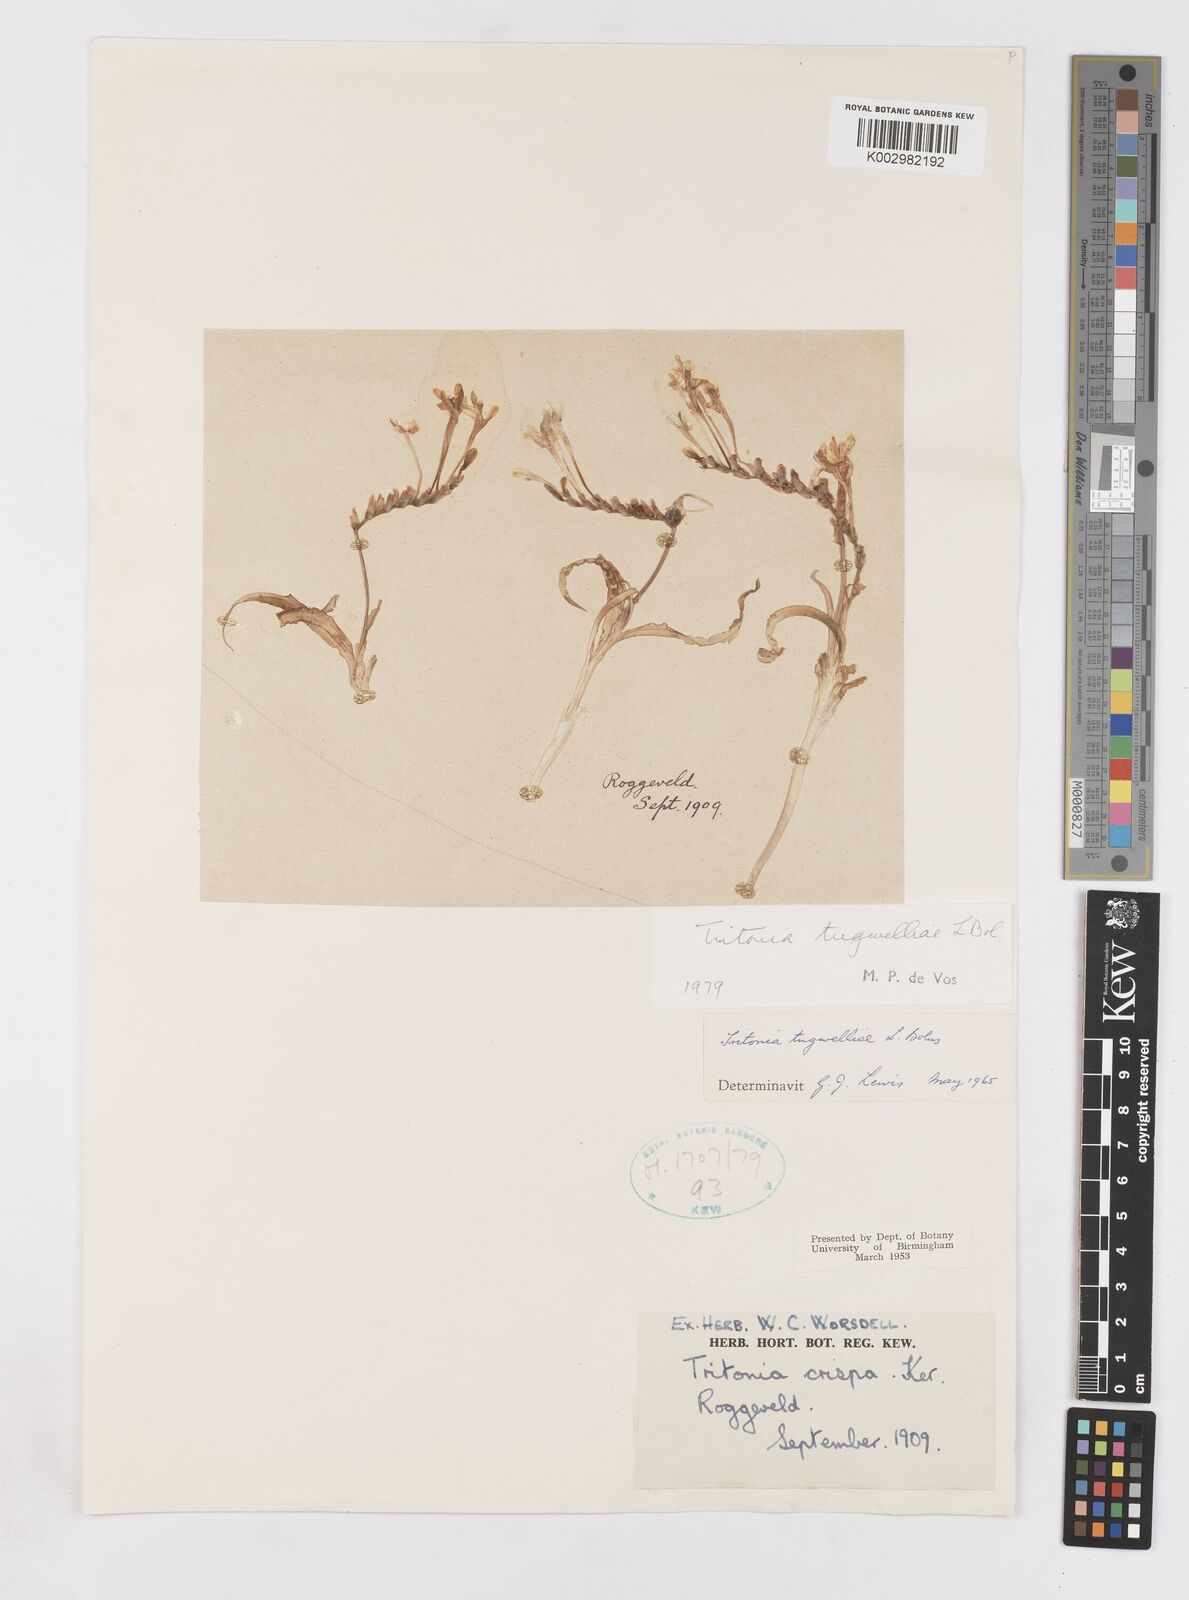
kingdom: Plantae
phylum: Tracheophyta
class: Liliopsida
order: Asparagales
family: Iridaceae
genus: Tritonia
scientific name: Tritonia tugwelliae
